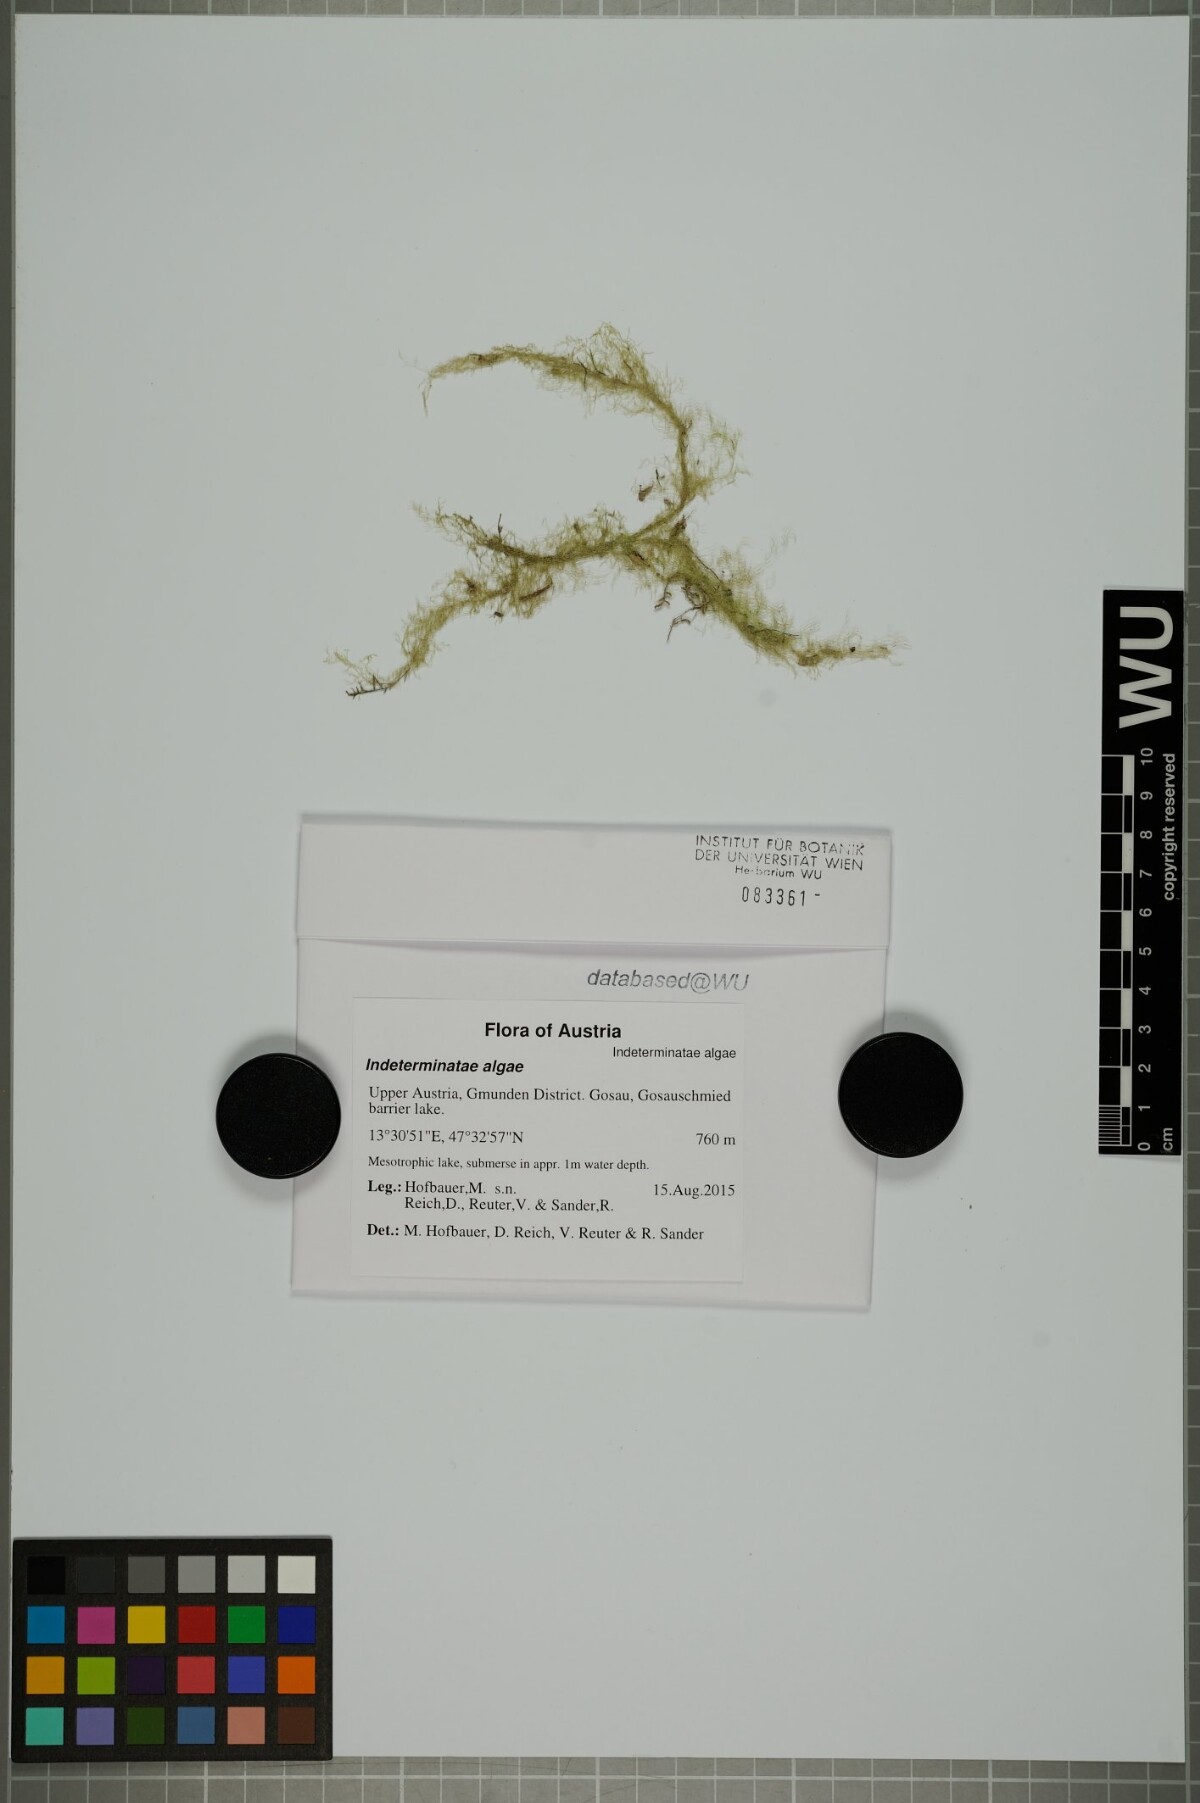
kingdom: Plantae
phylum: Chlorophyta
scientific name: Chlorophyta
